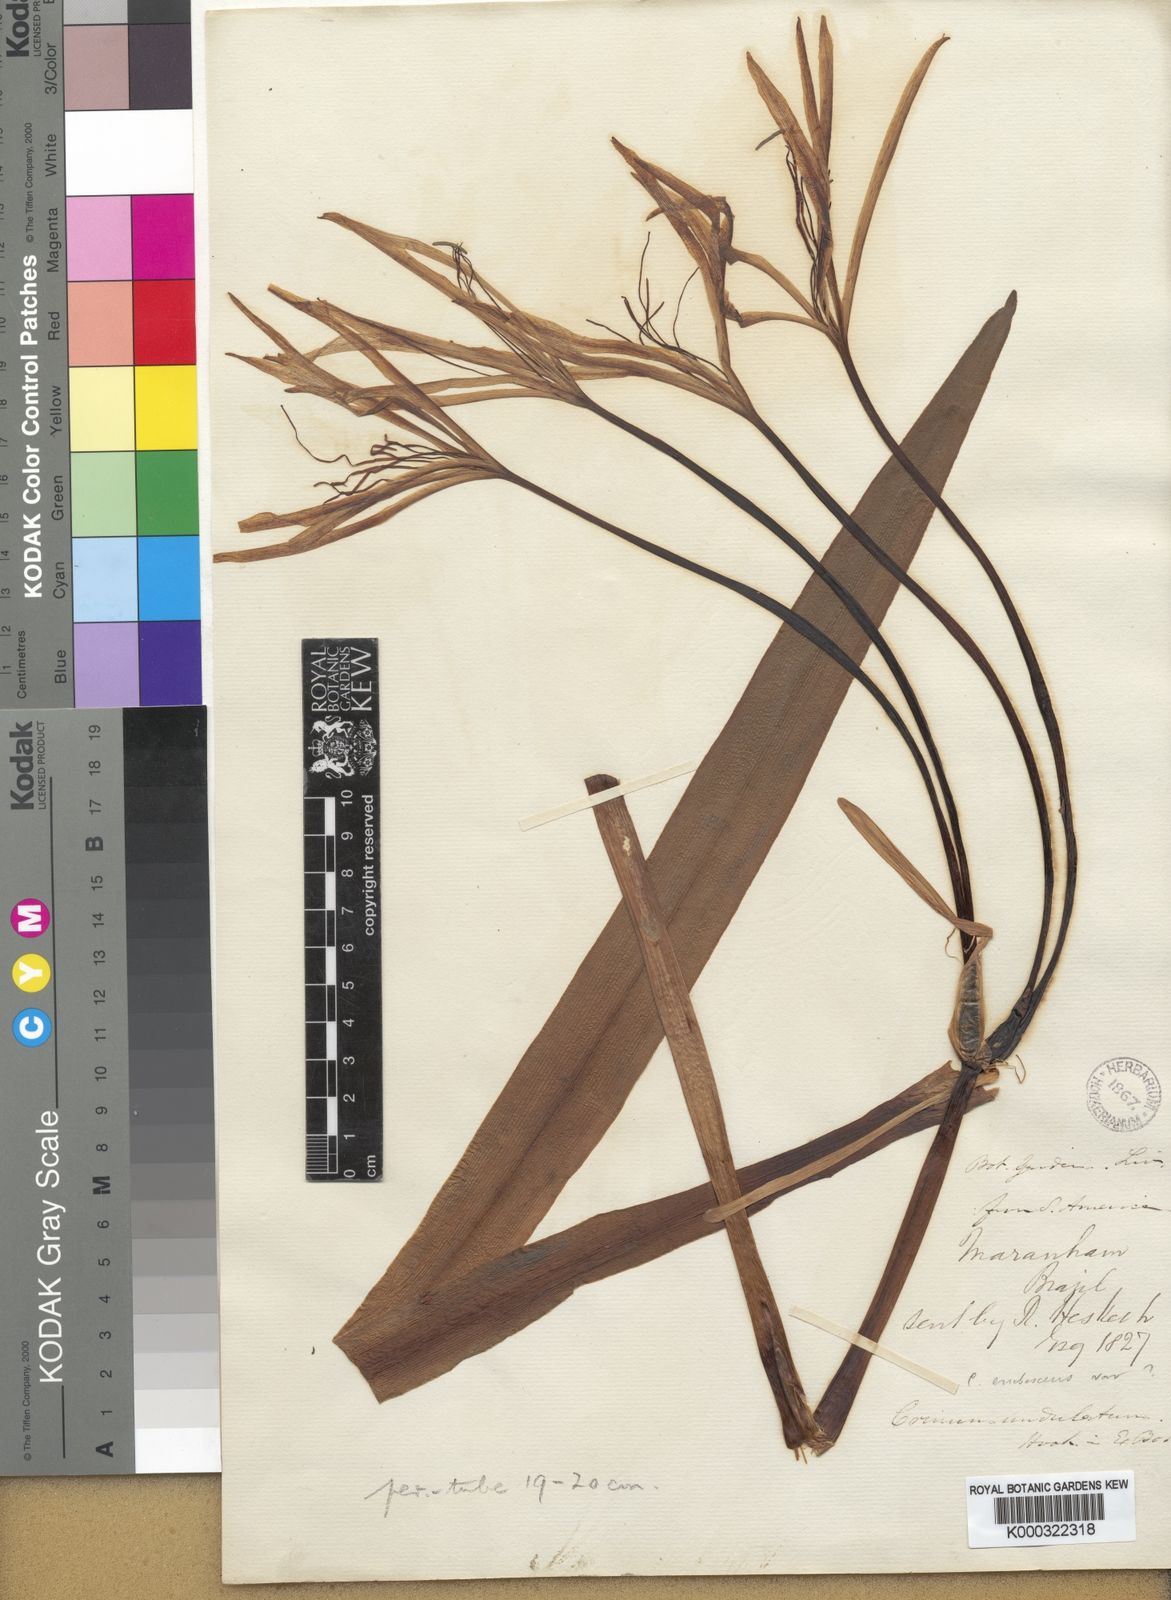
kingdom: Plantae
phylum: Tracheophyta
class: Liliopsida
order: Asparagales
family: Amaryllidaceae
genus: Crinum
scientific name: Crinum undulatum
